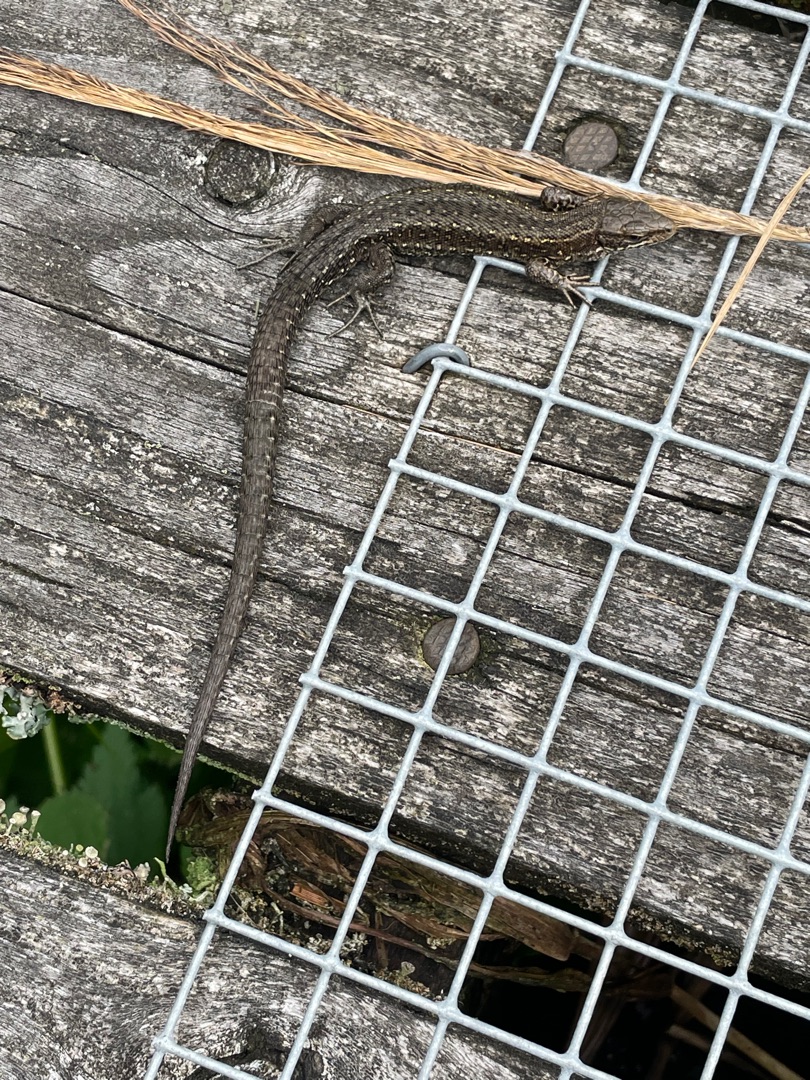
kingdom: Animalia
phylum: Chordata
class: Squamata
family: Lacertidae
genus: Zootoca
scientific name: Zootoca vivipara
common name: Skovfirben
